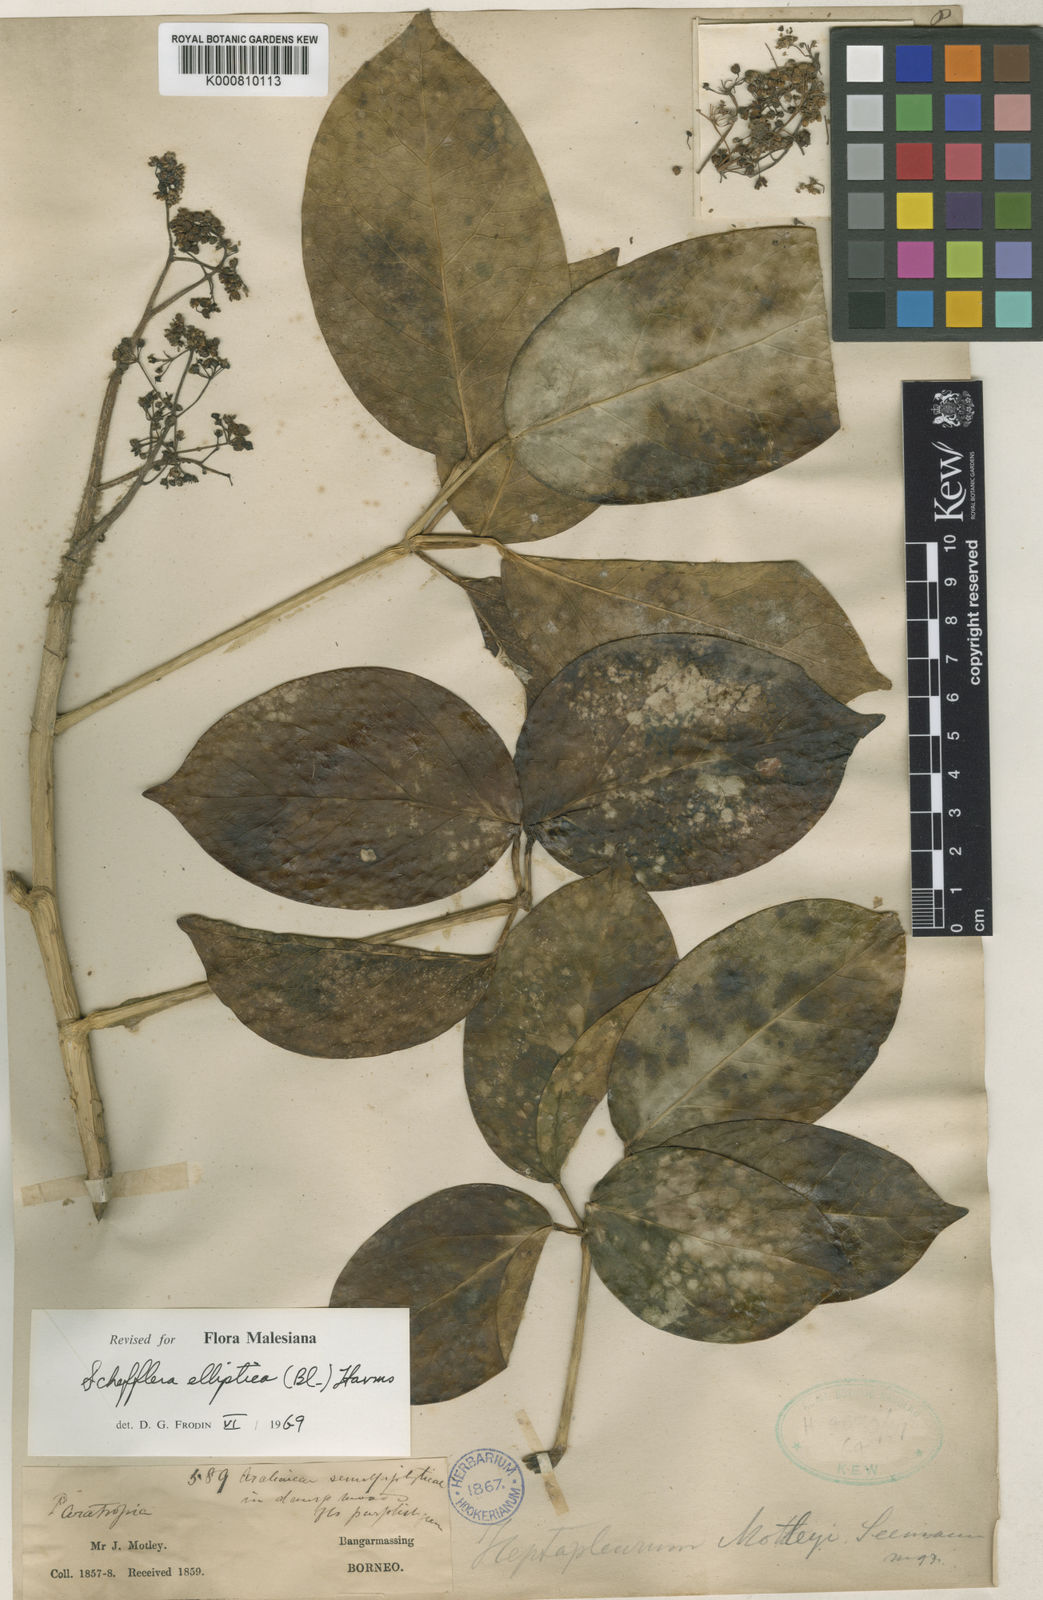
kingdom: Plantae
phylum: Tracheophyta
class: Magnoliopsida
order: Apiales
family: Araliaceae
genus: Heptapleurum
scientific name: Heptapleurum ellipticum
